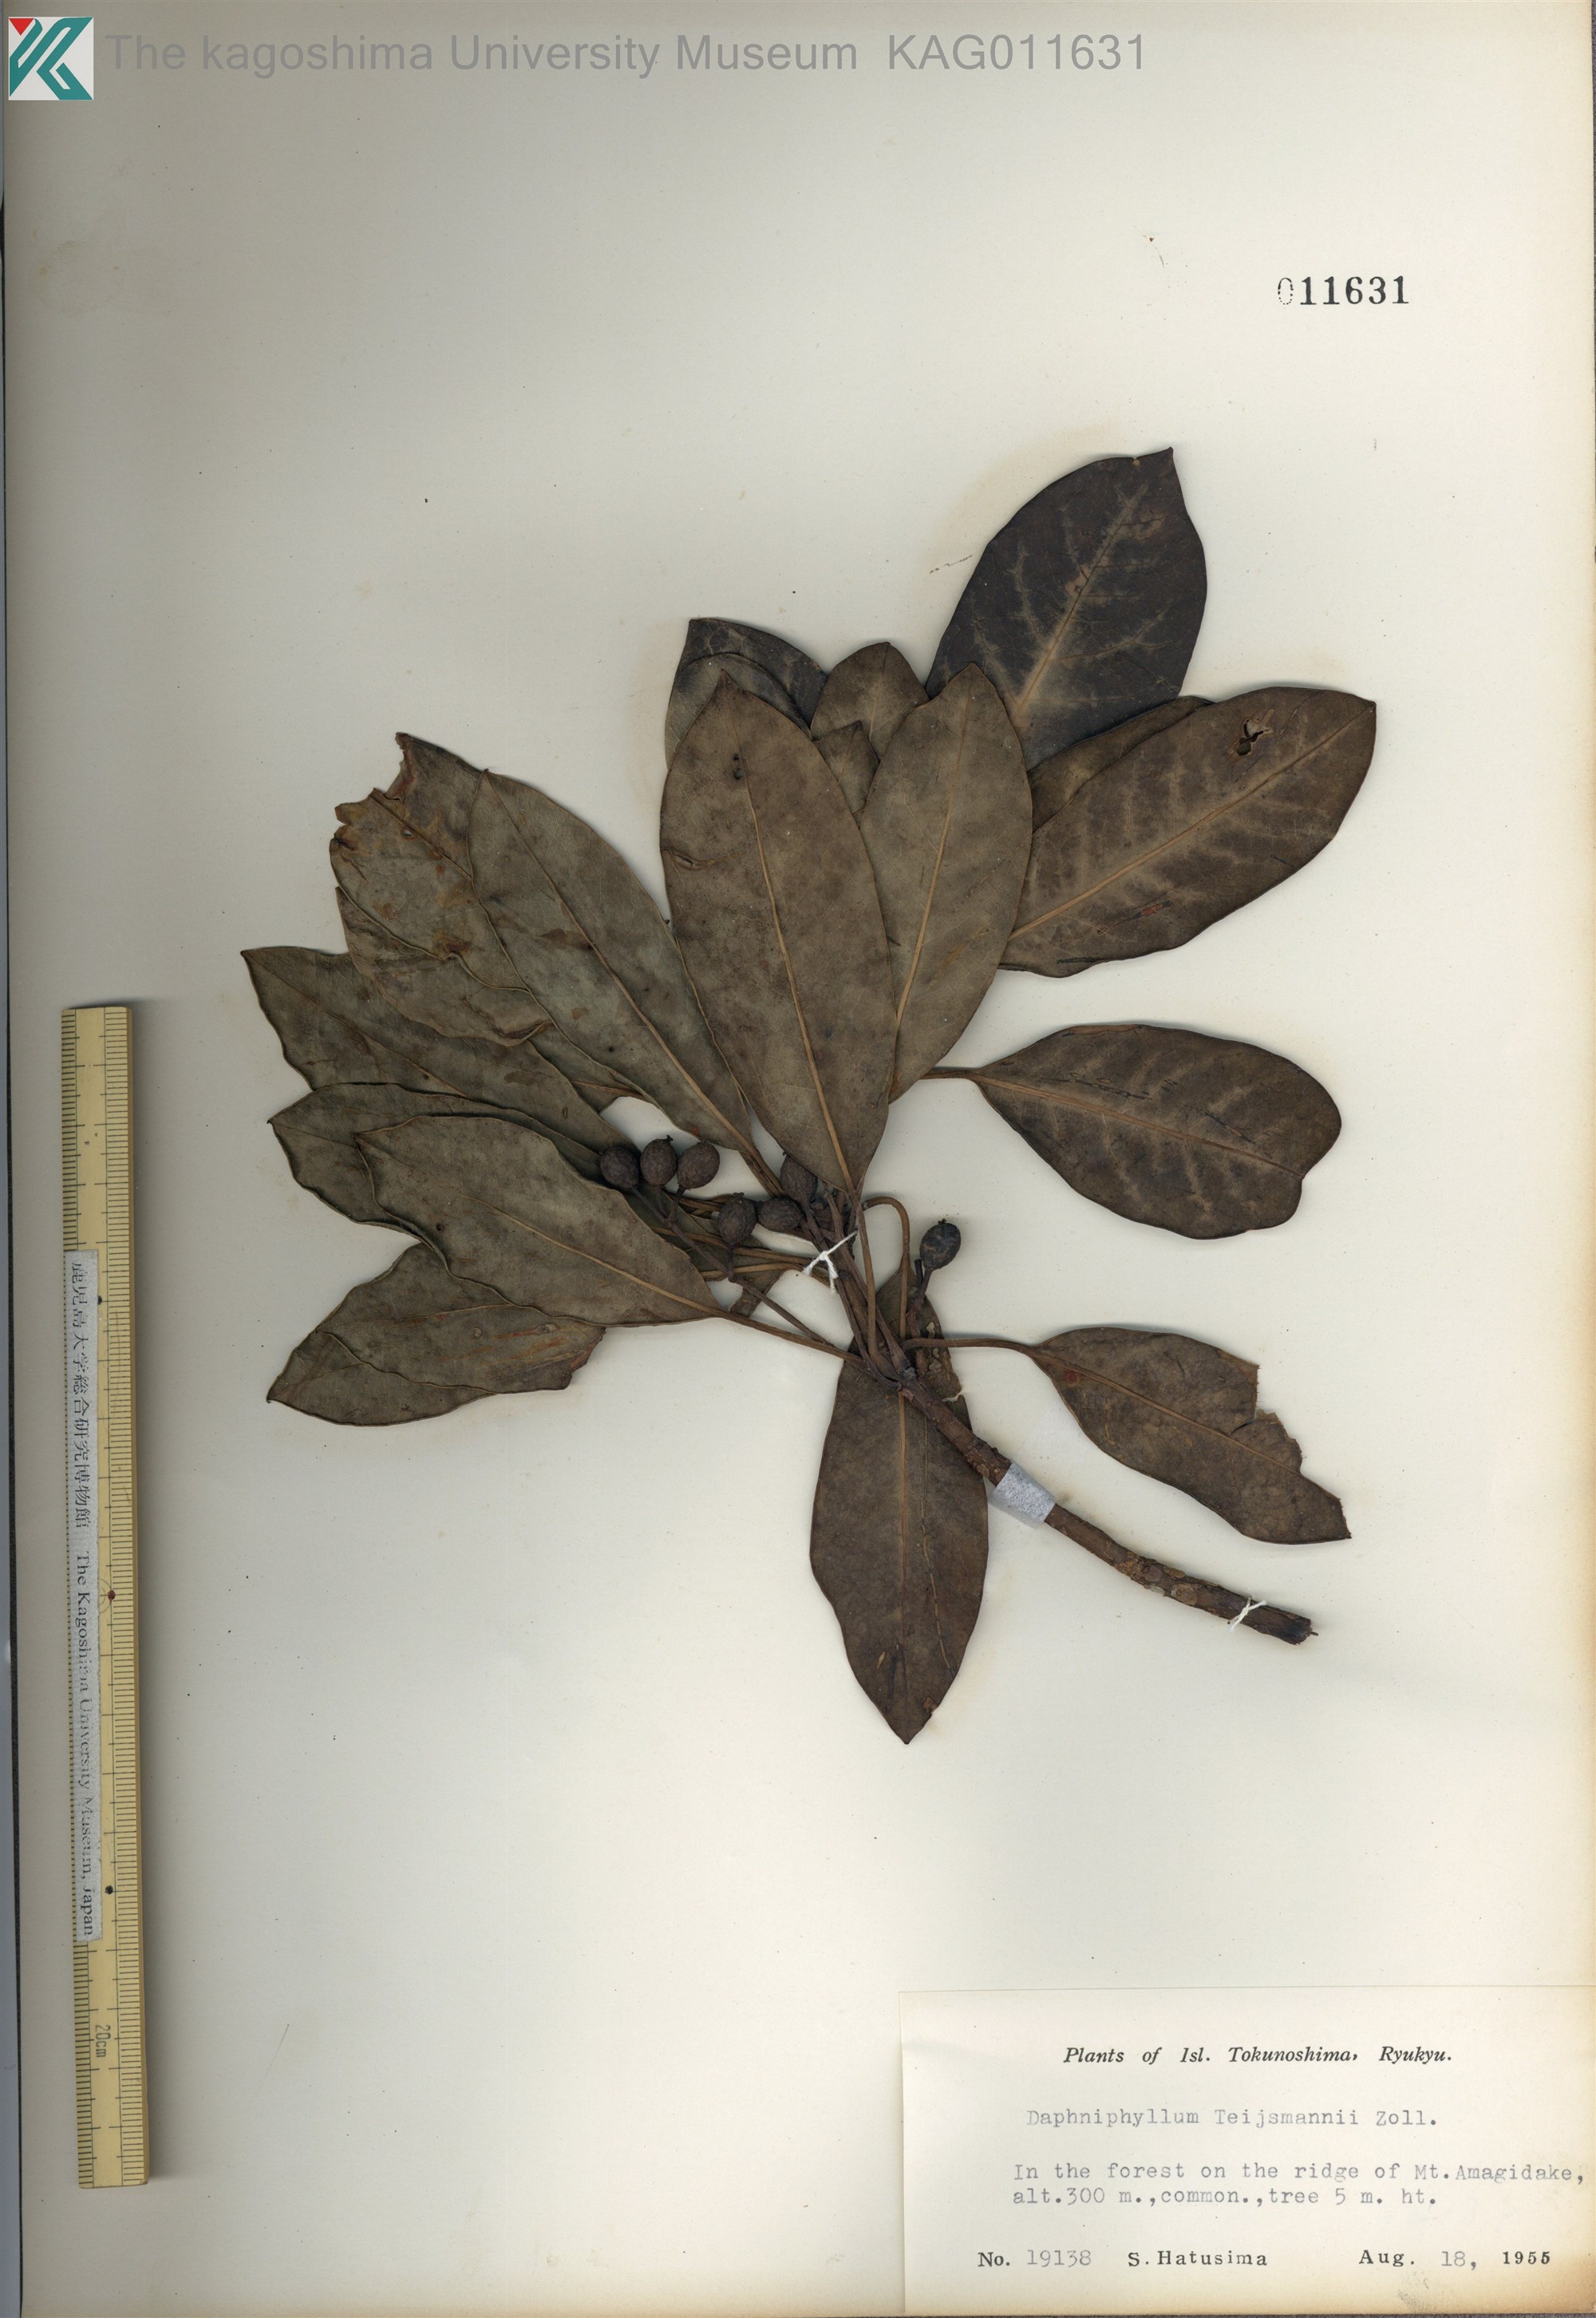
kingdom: Plantae
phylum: Tracheophyta
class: Magnoliopsida
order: Saxifragales
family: Daphniphyllaceae
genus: Daphniphyllum
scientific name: Daphniphyllum teijsmannii
